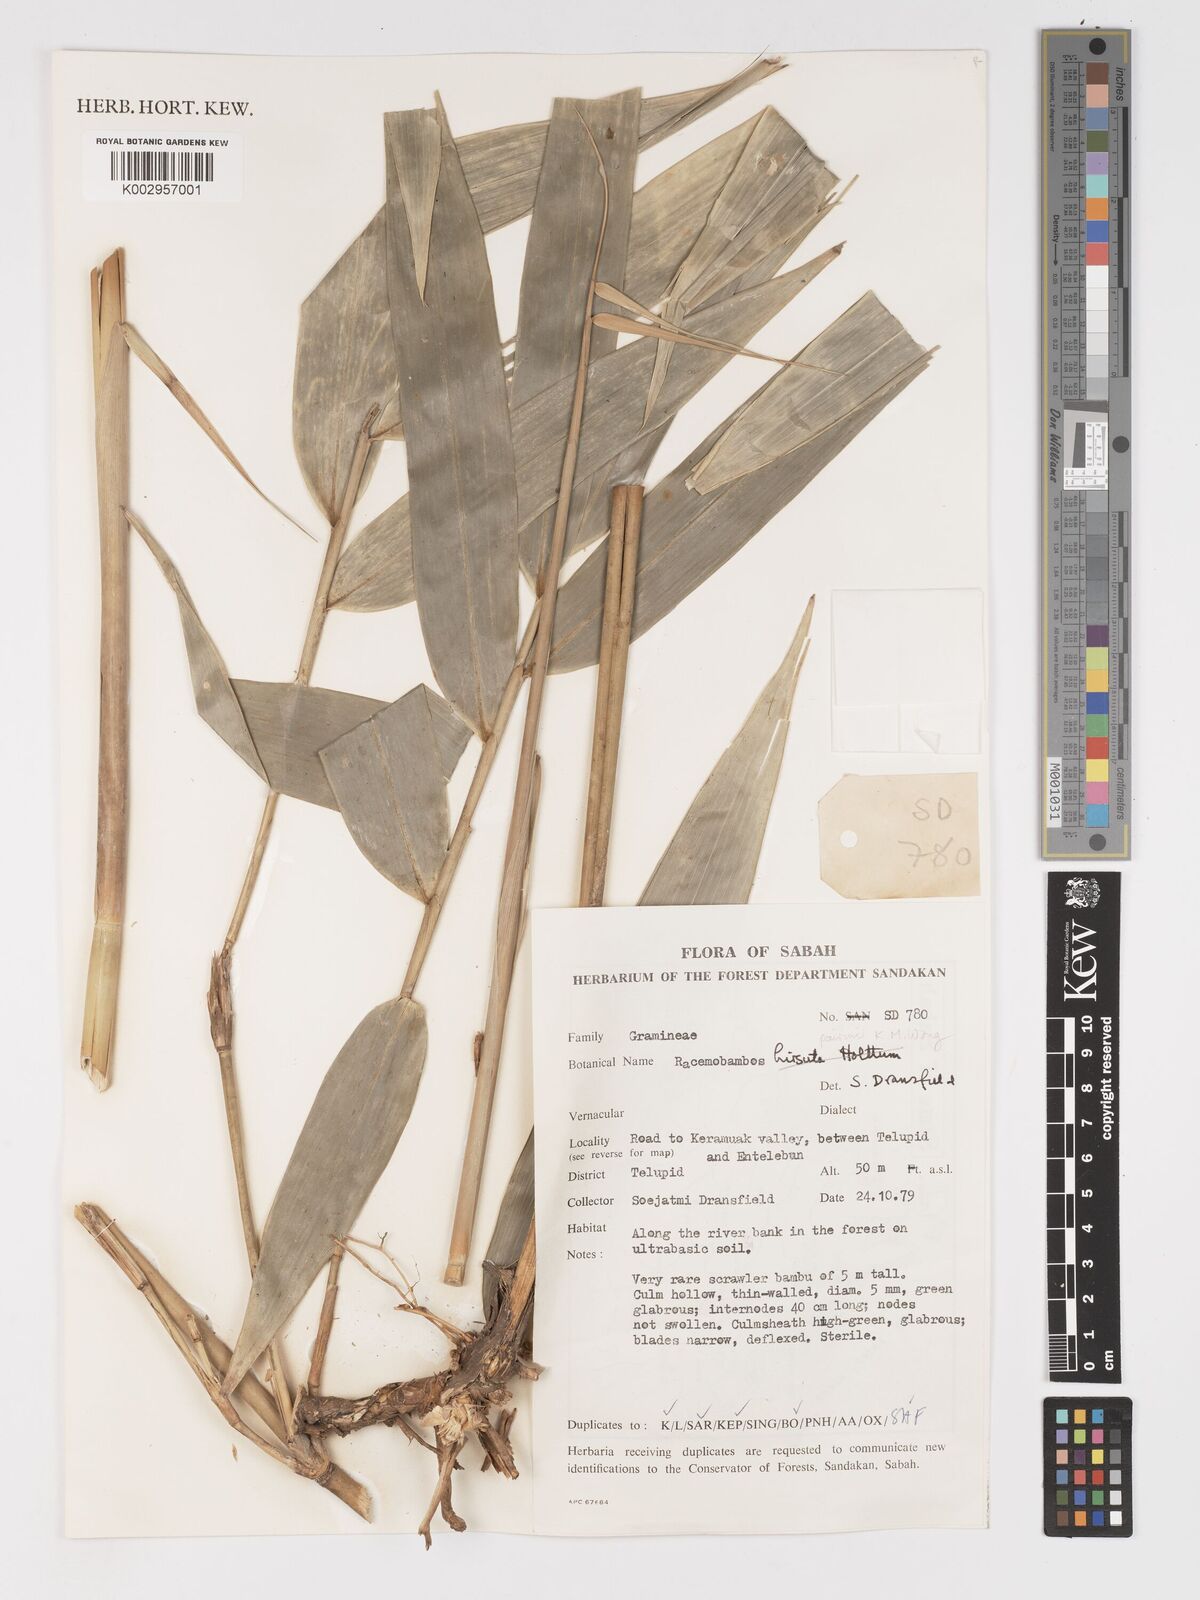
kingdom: Plantae
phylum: Tracheophyta
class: Liliopsida
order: Poales
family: Poaceae
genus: Racemobambos
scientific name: Racemobambos hirsuta
